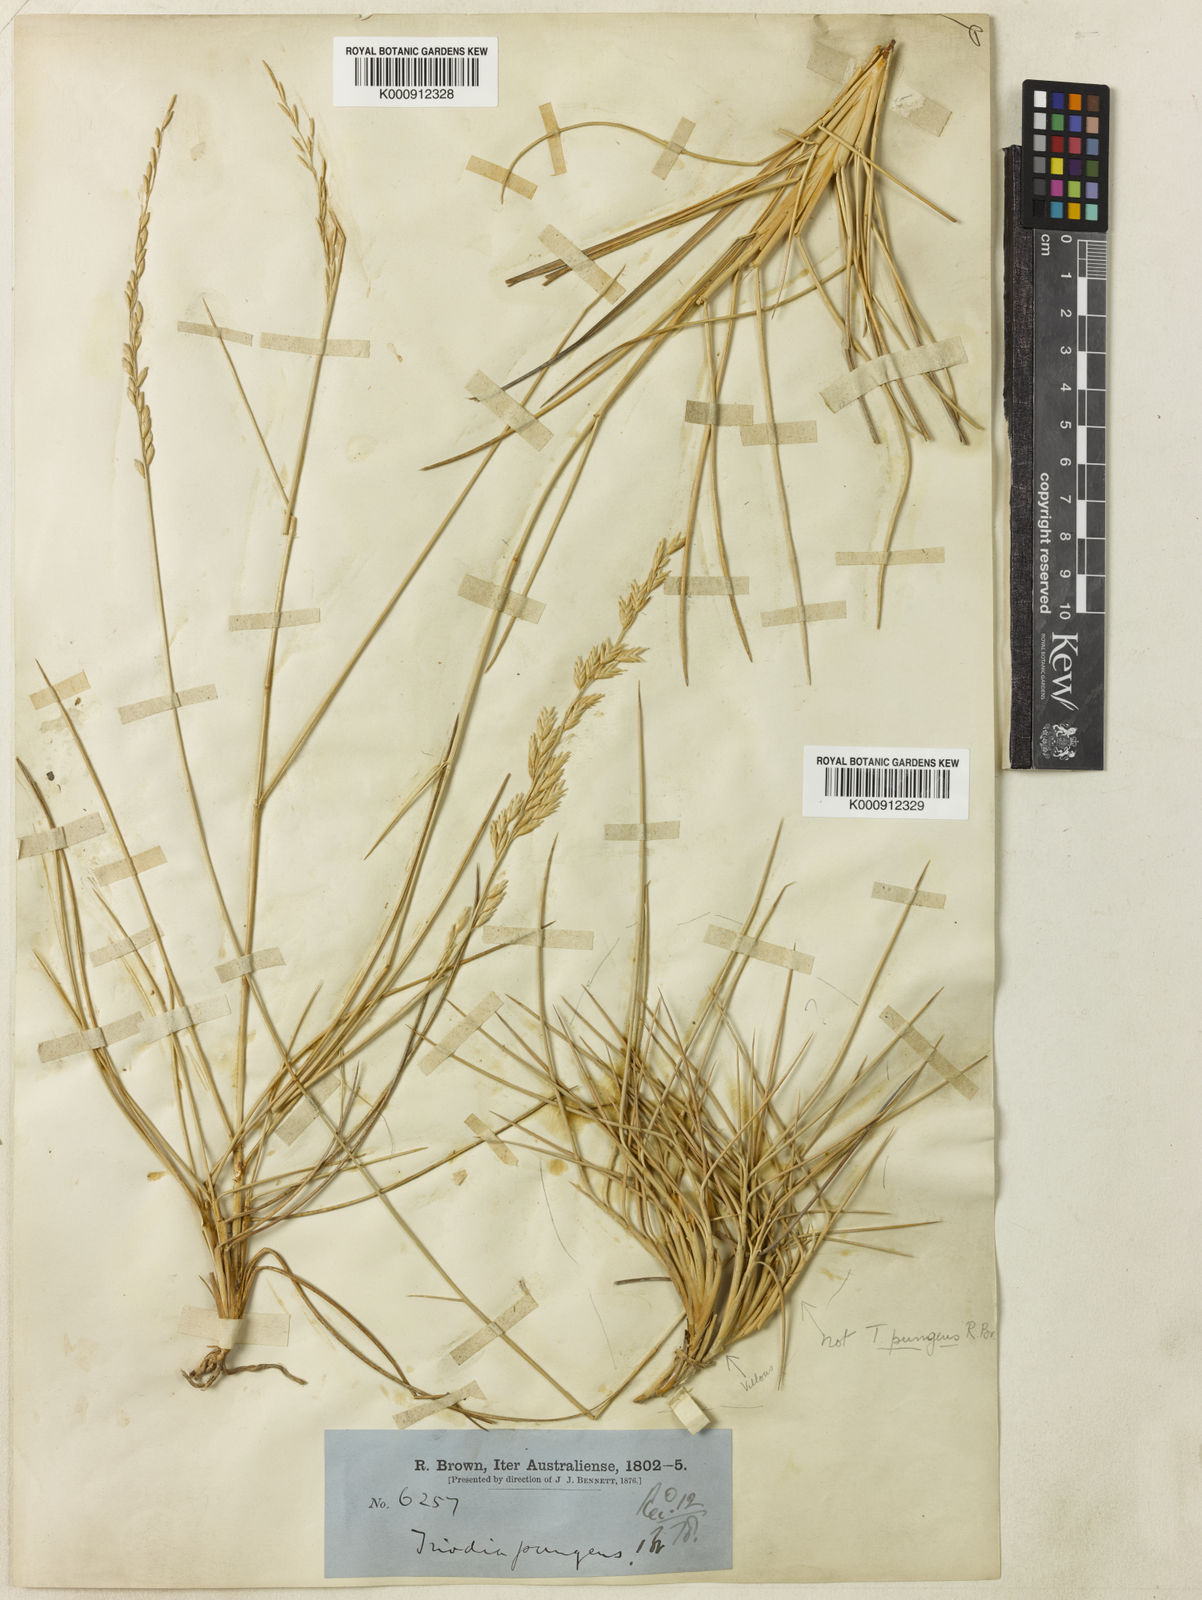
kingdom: Plantae
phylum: Tracheophyta
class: Liliopsida
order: Poales
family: Poaceae
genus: Triodia
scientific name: Triodia pungens
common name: Soft spinifex
